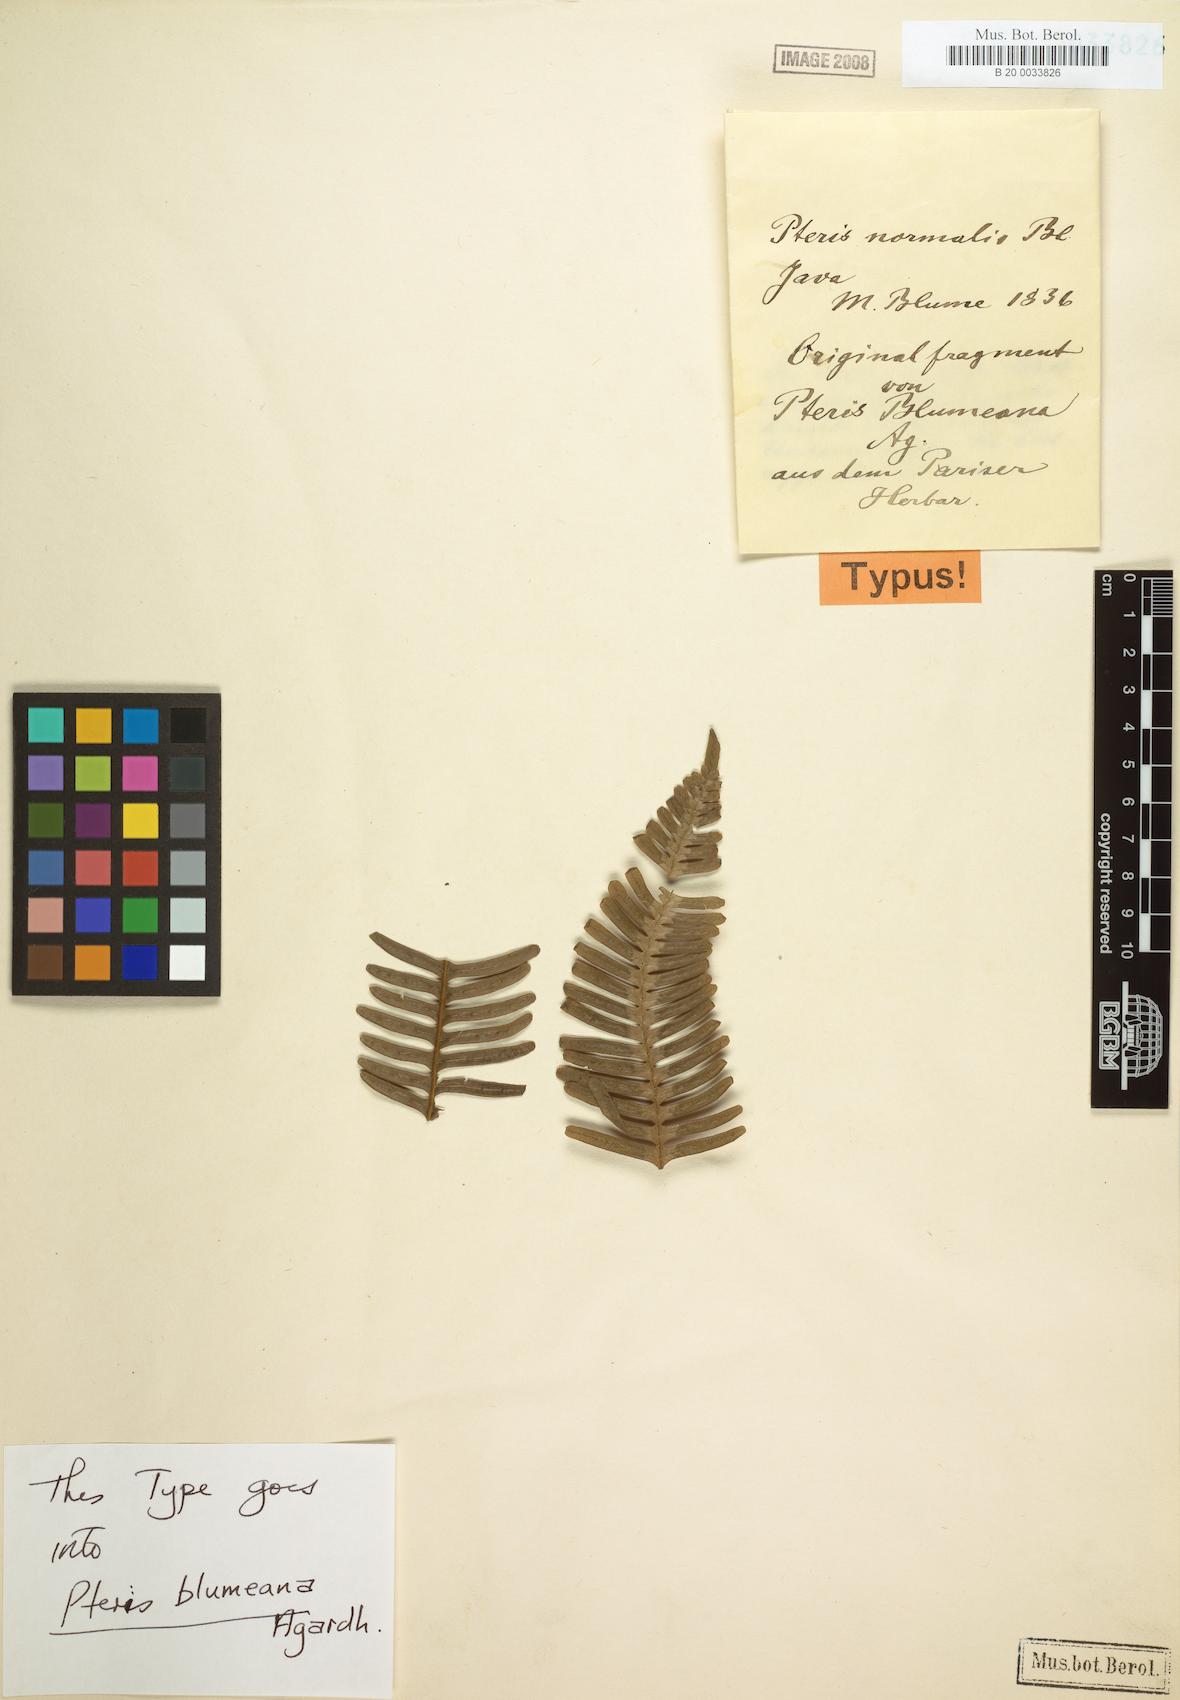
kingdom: Plantae
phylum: Tracheophyta
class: Polypodiopsida
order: Polypodiales
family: Pteridaceae
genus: Pteris
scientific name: Pteris blumeana
